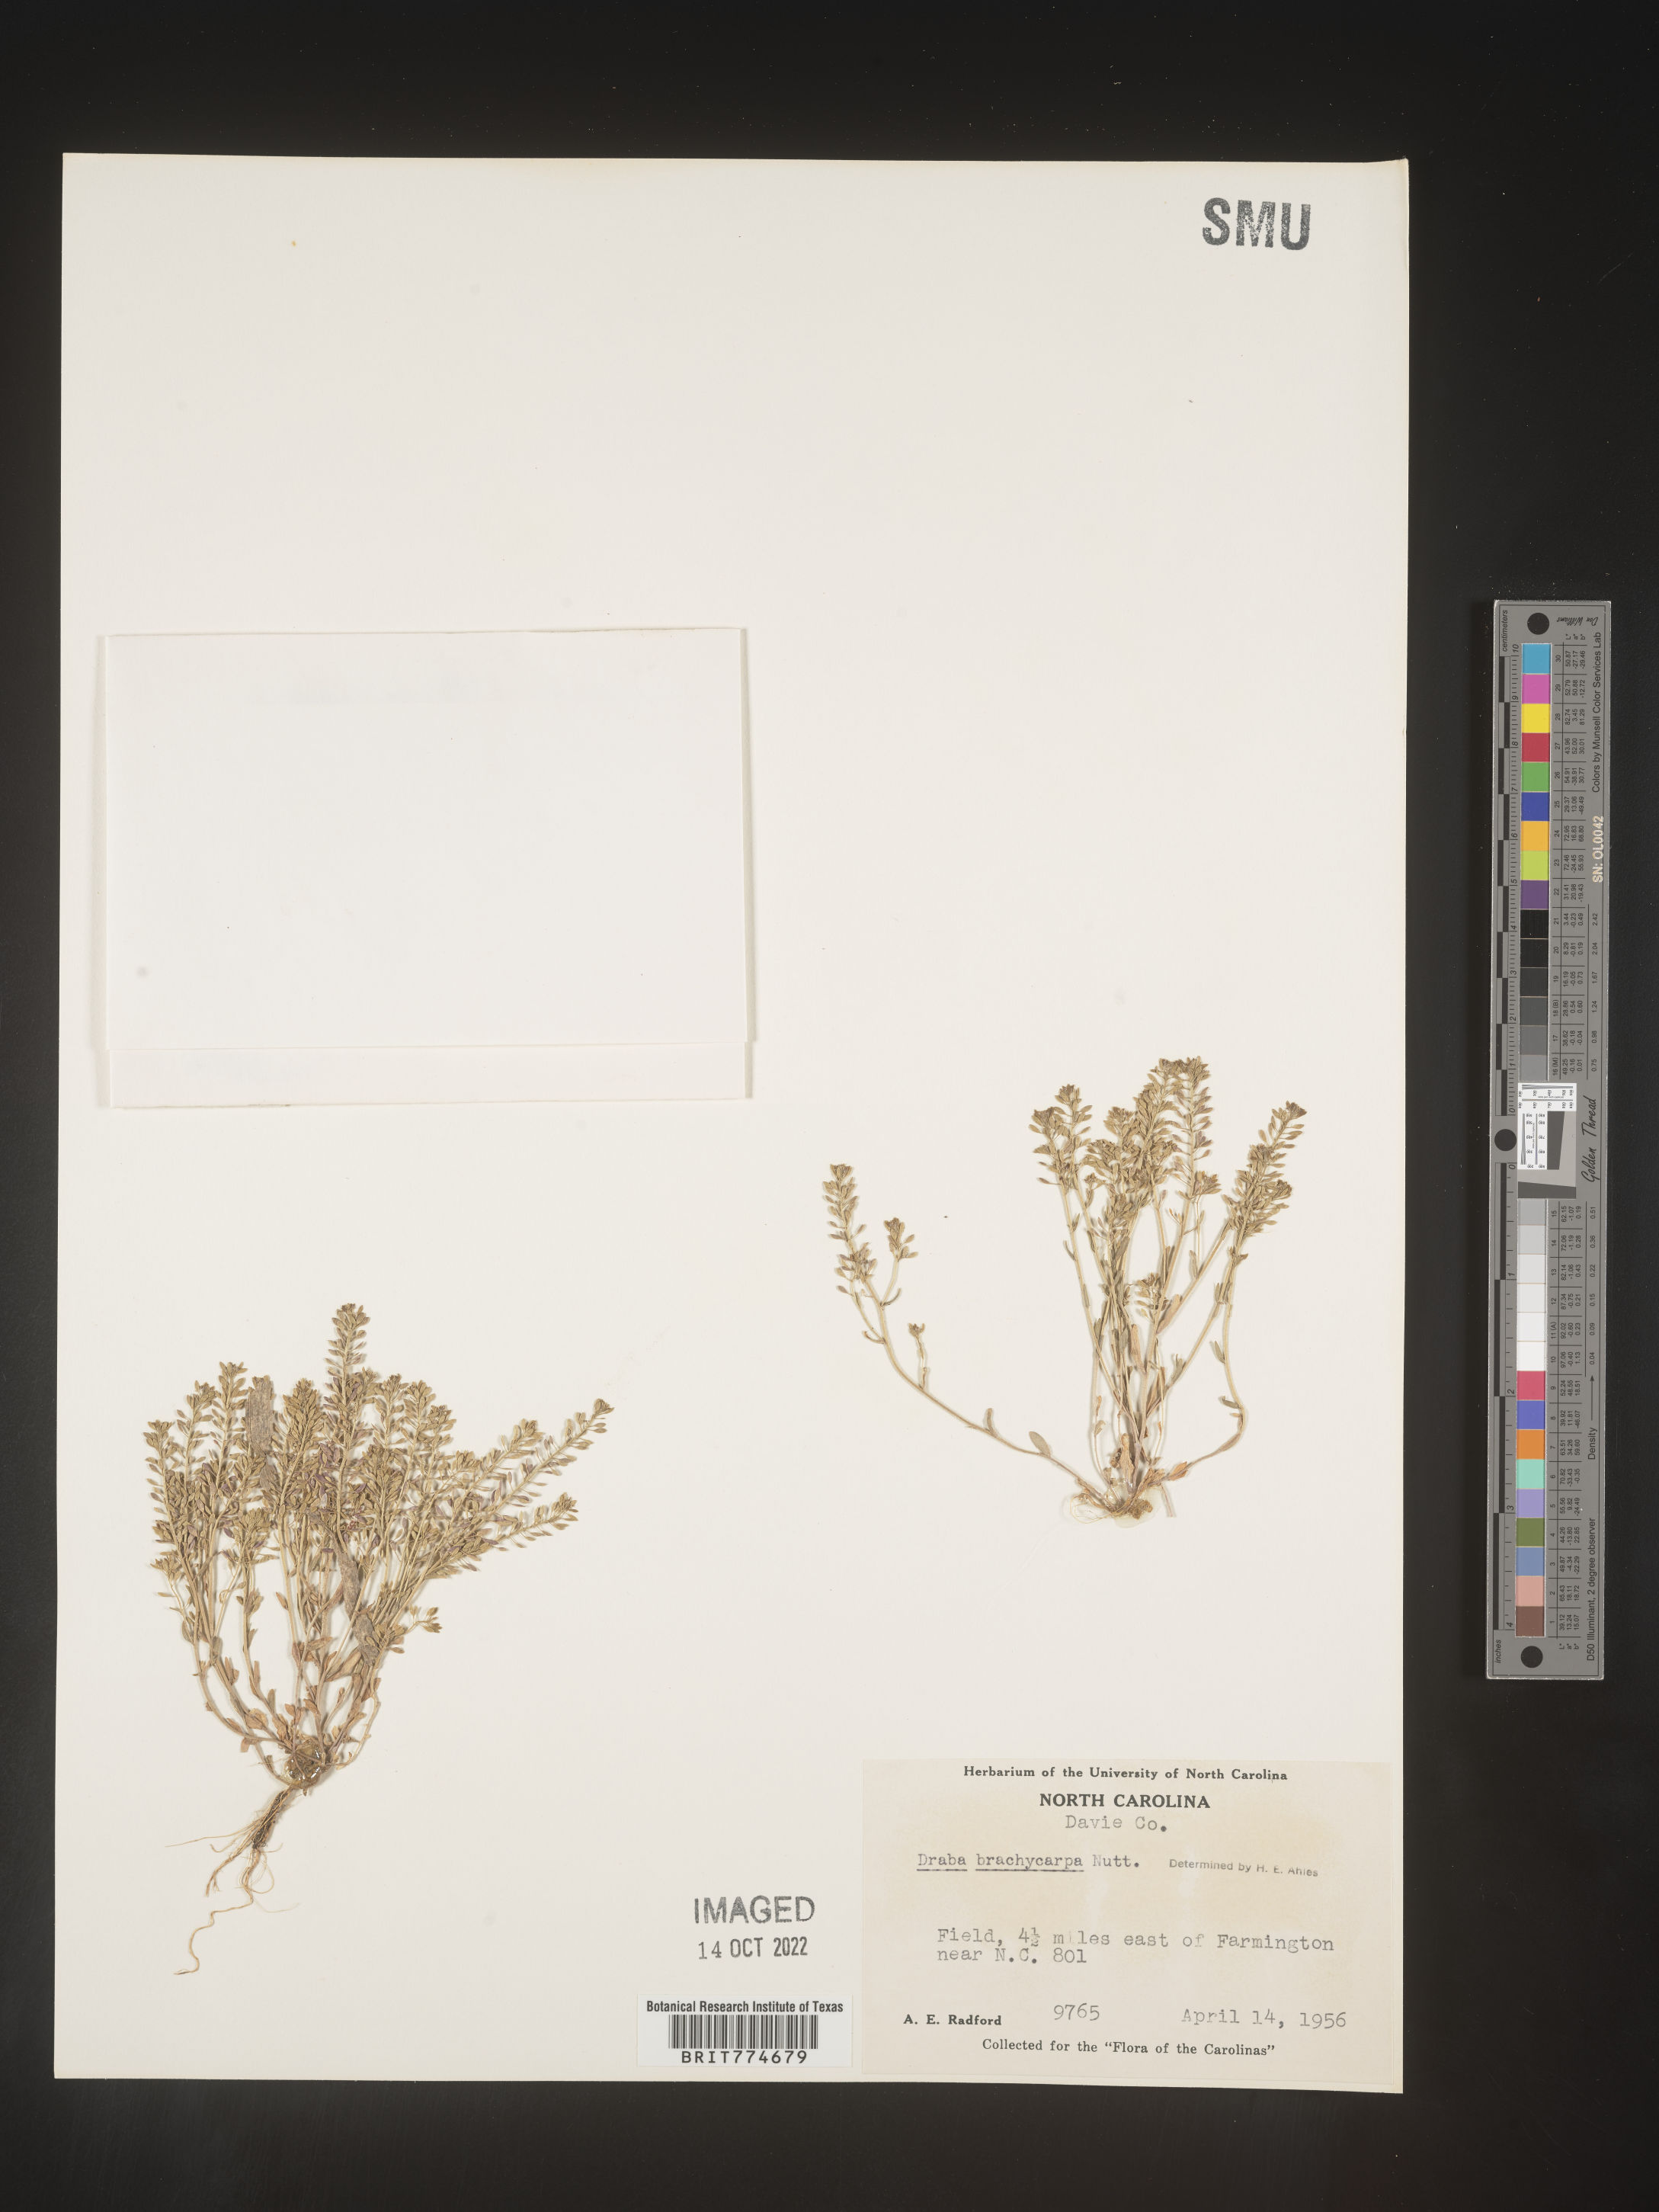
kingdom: Plantae
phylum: Tracheophyta
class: Magnoliopsida
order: Brassicales
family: Brassicaceae
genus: Abdra
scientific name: Abdra brachycarpa
